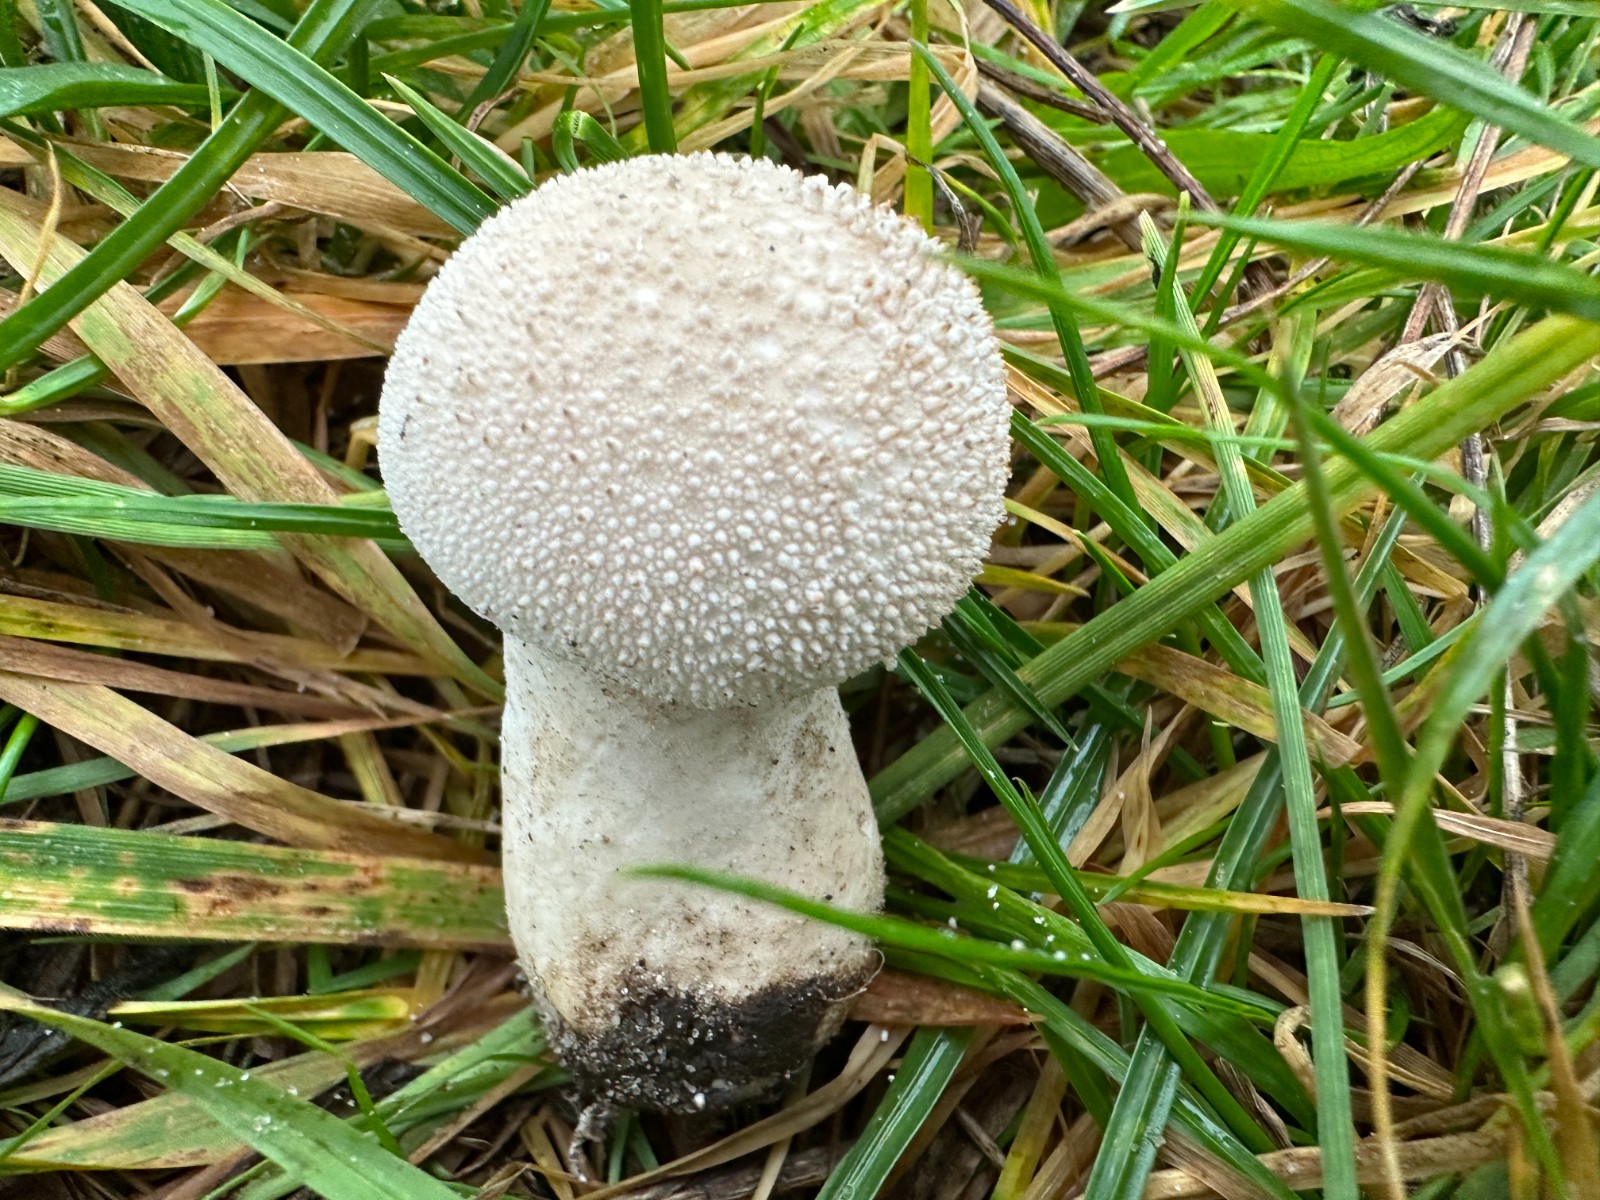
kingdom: Fungi
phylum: Basidiomycota
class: Agaricomycetes
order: Agaricales
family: Lycoperdaceae
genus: Lycoperdon
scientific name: Lycoperdon perlatum
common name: krystal-støvbold
